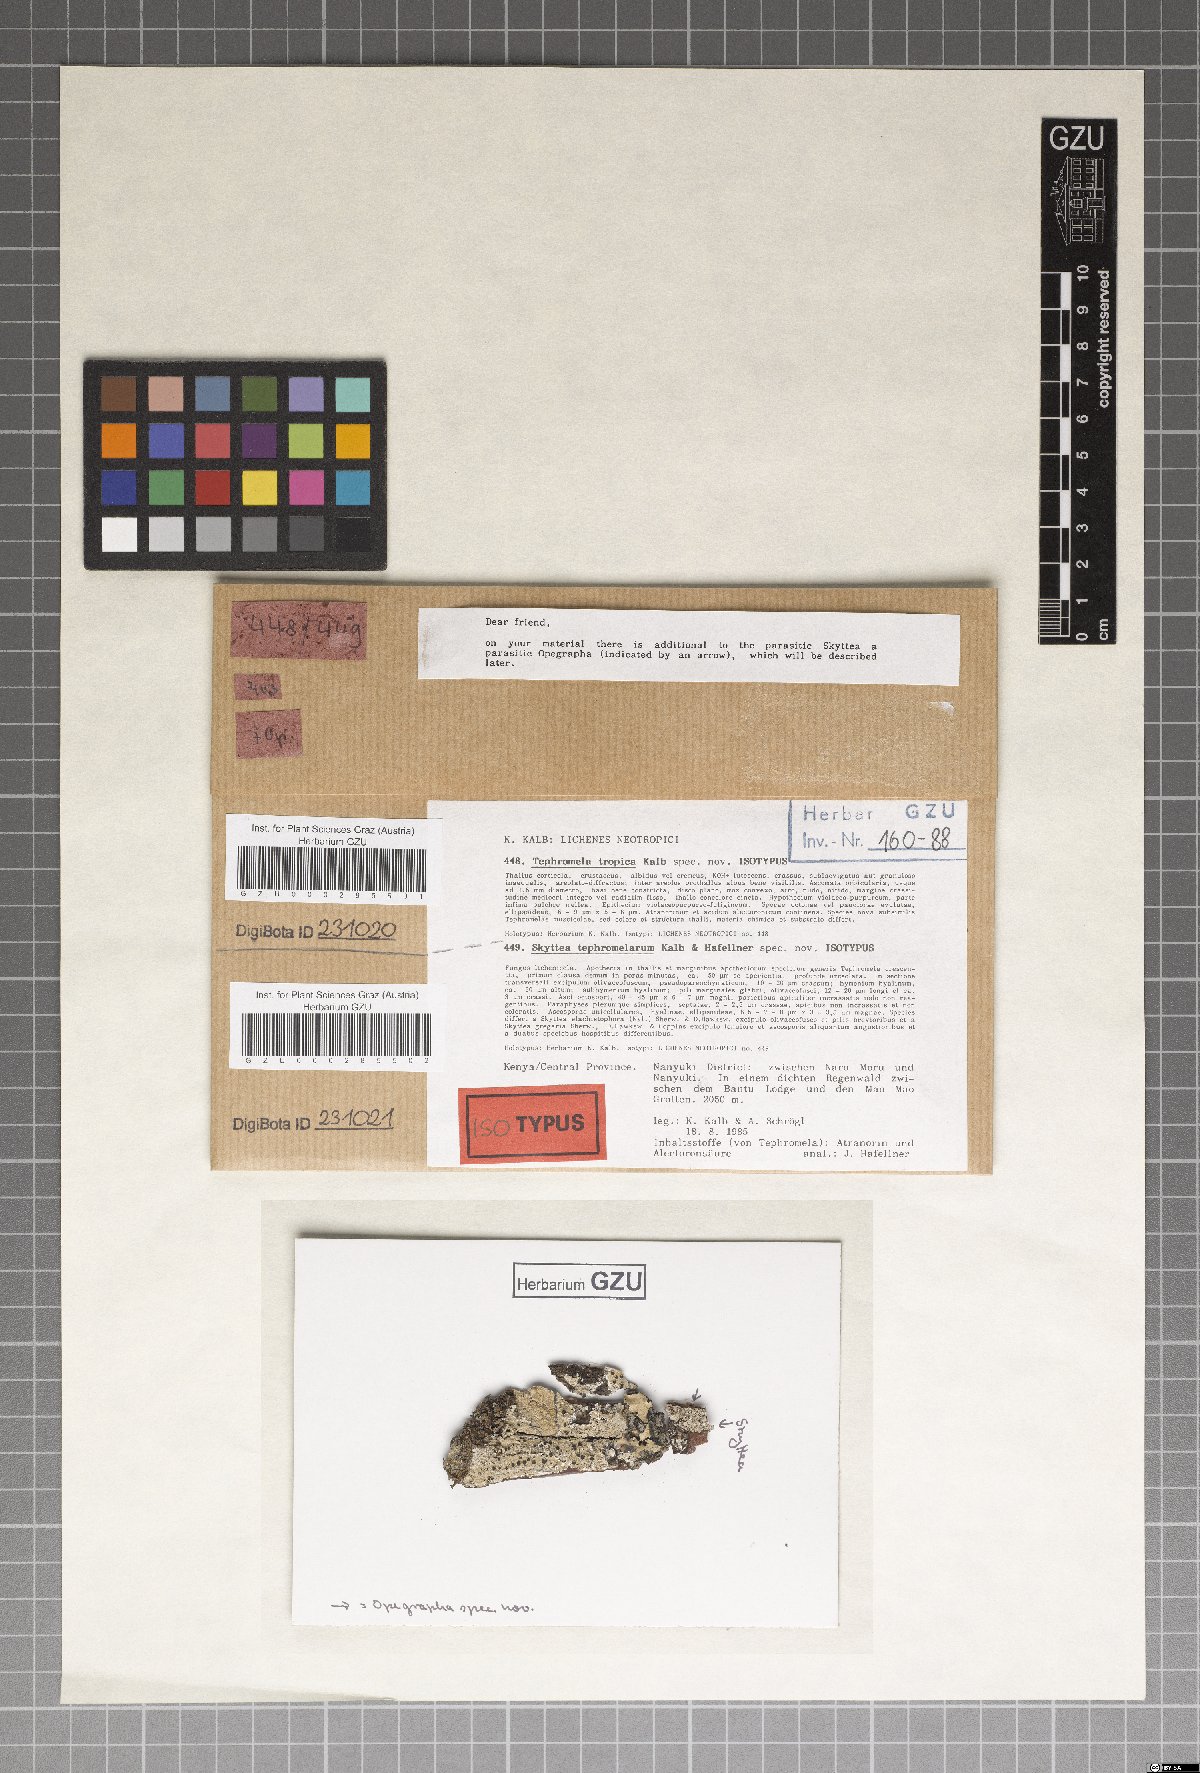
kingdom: Fungi
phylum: Ascomycota
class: Lecanoromycetes
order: Lecanorales
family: Tephromelataceae
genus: Tephromela
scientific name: Tephromela tropica
